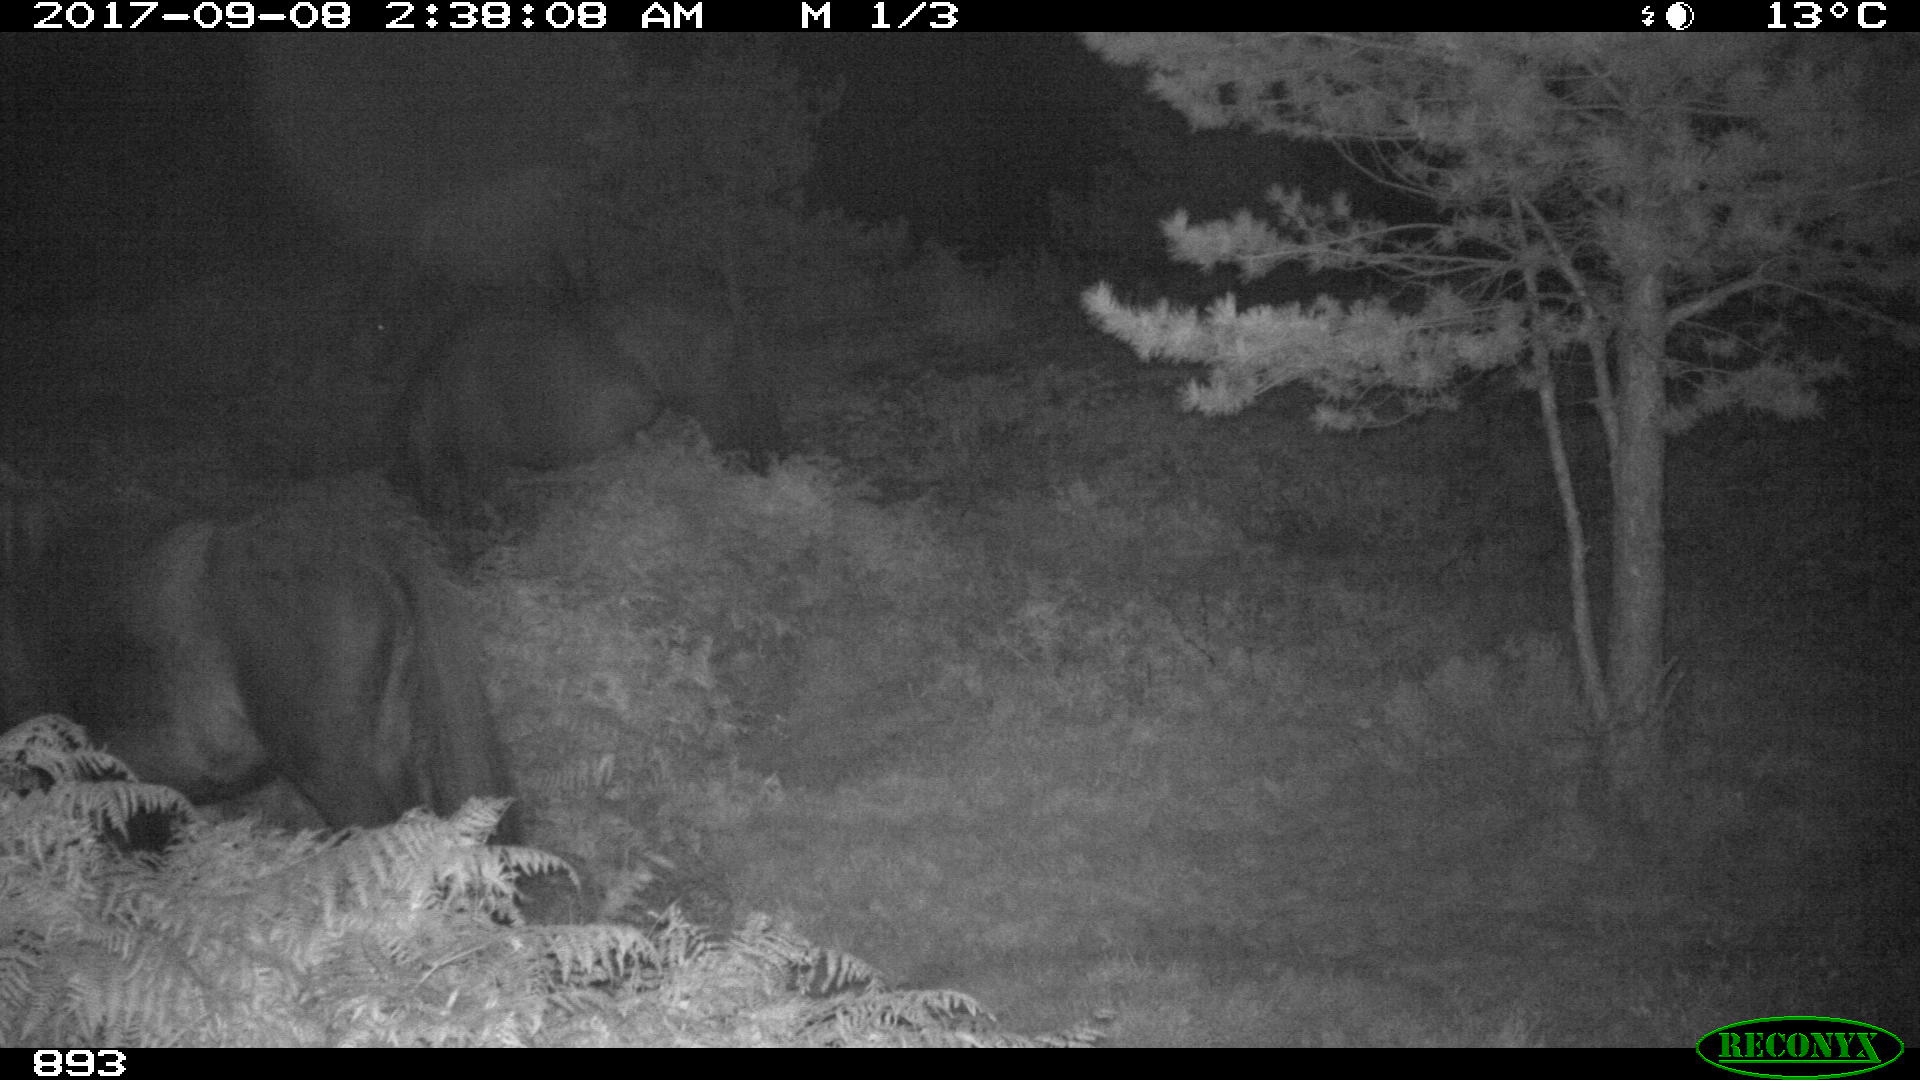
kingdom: Animalia
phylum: Chordata
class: Mammalia
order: Perissodactyla
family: Equidae
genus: Equus
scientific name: Equus caballus
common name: Horse
